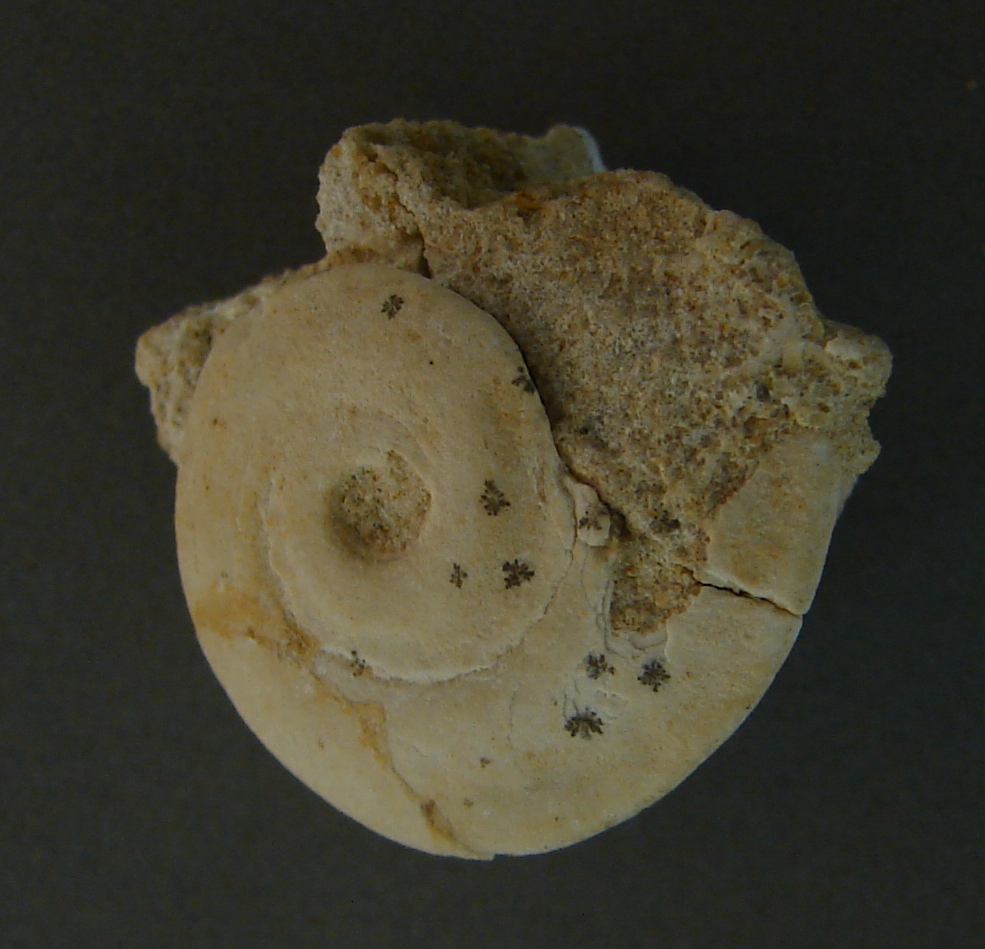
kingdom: Animalia
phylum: Mollusca
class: Gastropoda
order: Trochida
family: Turbinidae
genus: Meiersia
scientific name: Meiersia disarmata
